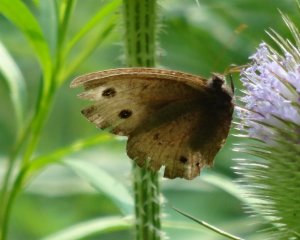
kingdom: Animalia
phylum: Arthropoda
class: Insecta
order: Lepidoptera
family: Nymphalidae
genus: Cercyonis
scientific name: Cercyonis pegala
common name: Common Wood-Nymph
